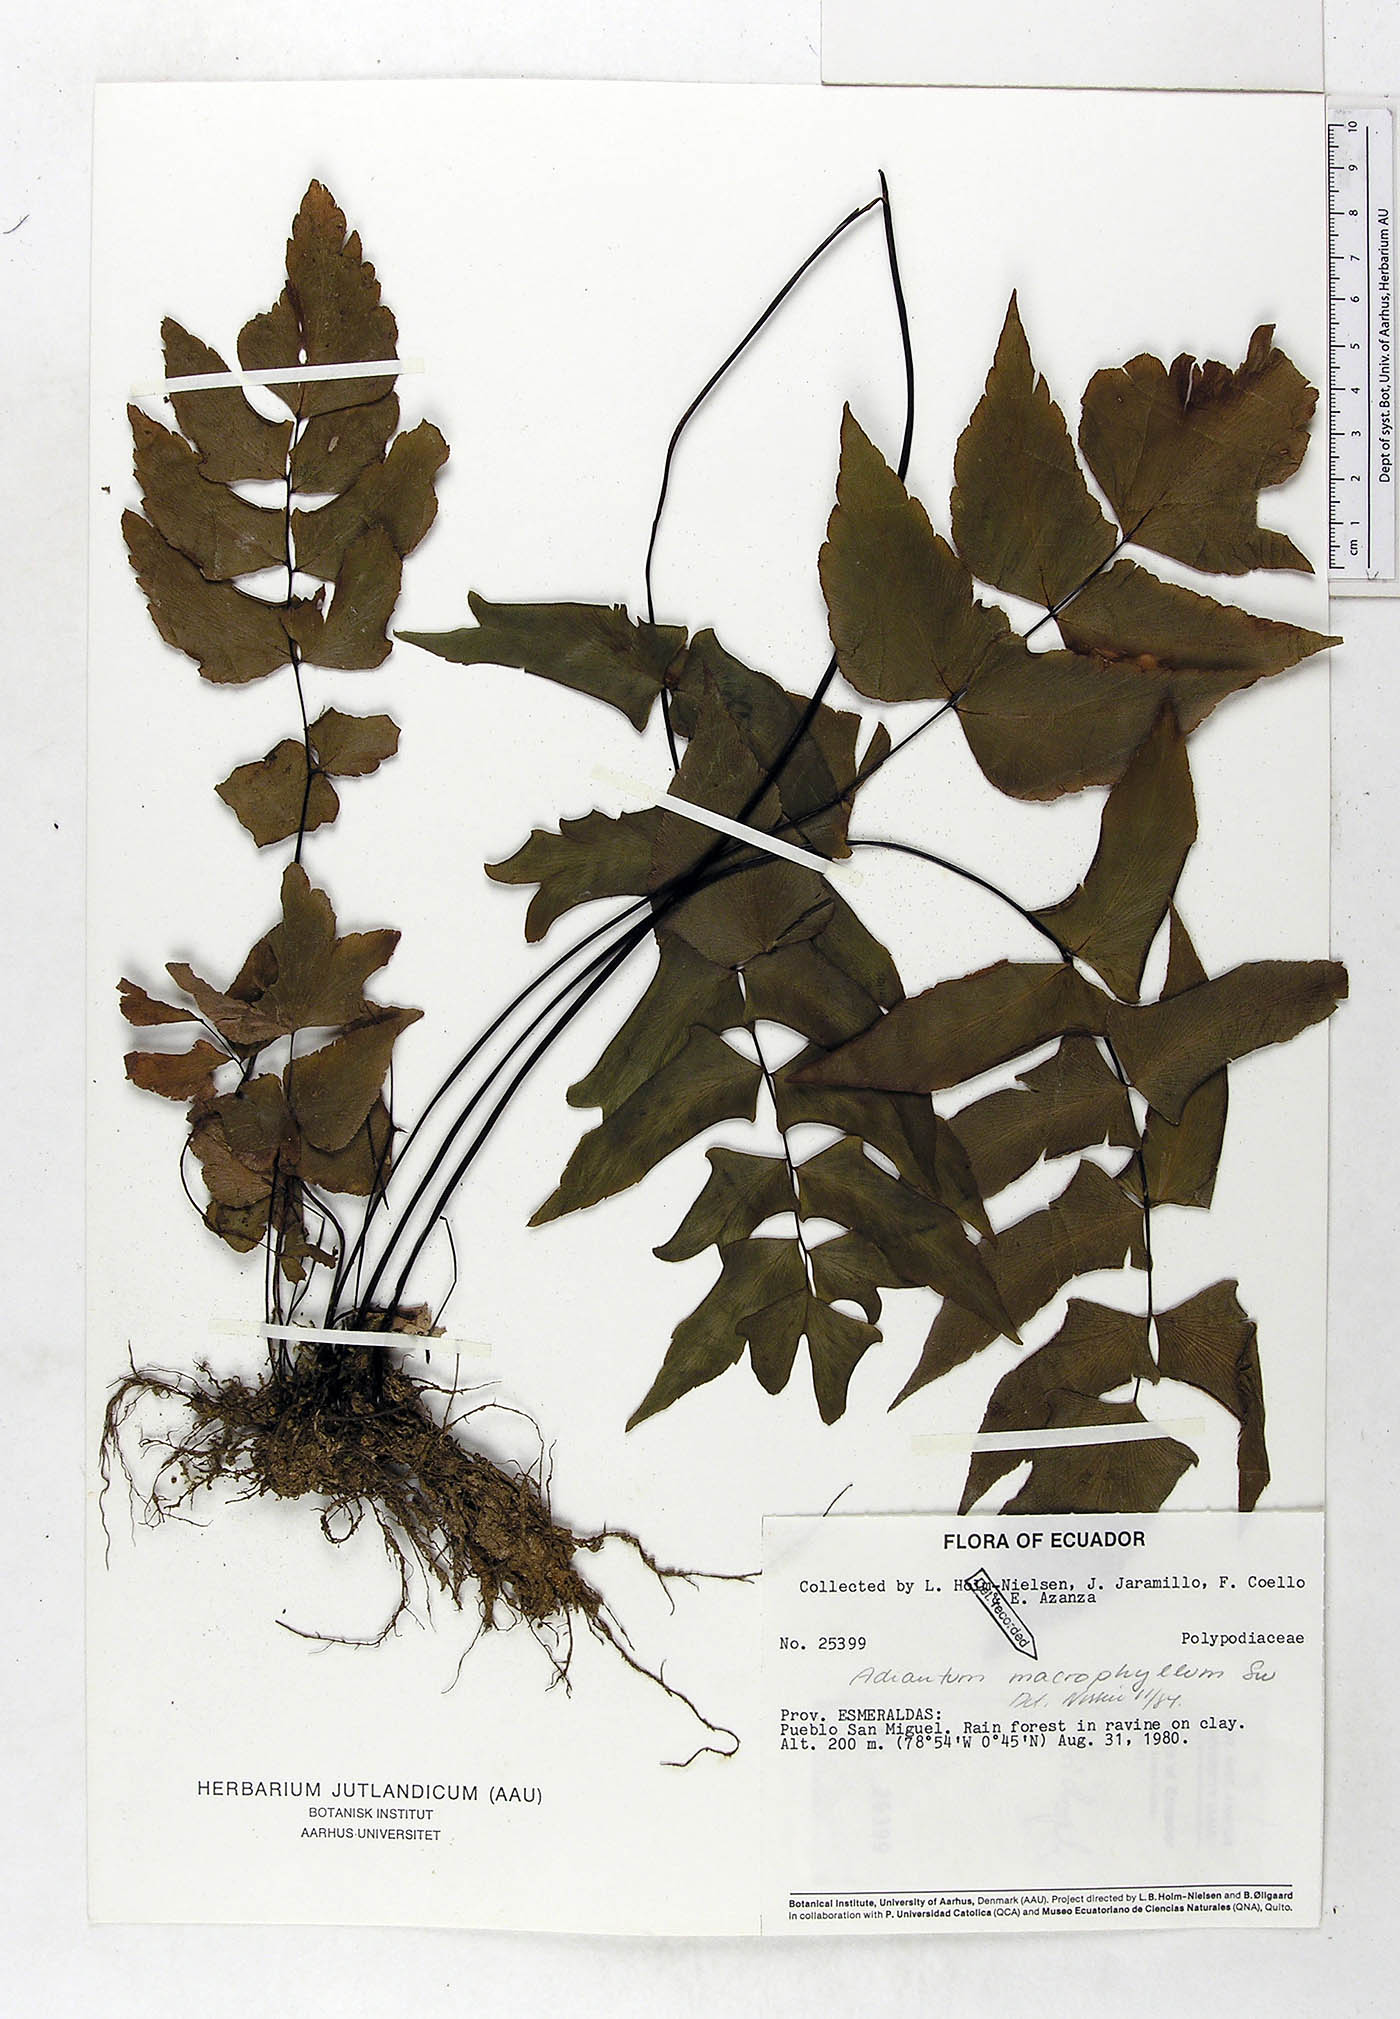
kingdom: Plantae
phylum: Tracheophyta
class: Polypodiopsida
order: Polypodiales
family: Pteridaceae
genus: Adiantum
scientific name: Adiantum macrophyllum
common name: Largeleaf maidenhair
